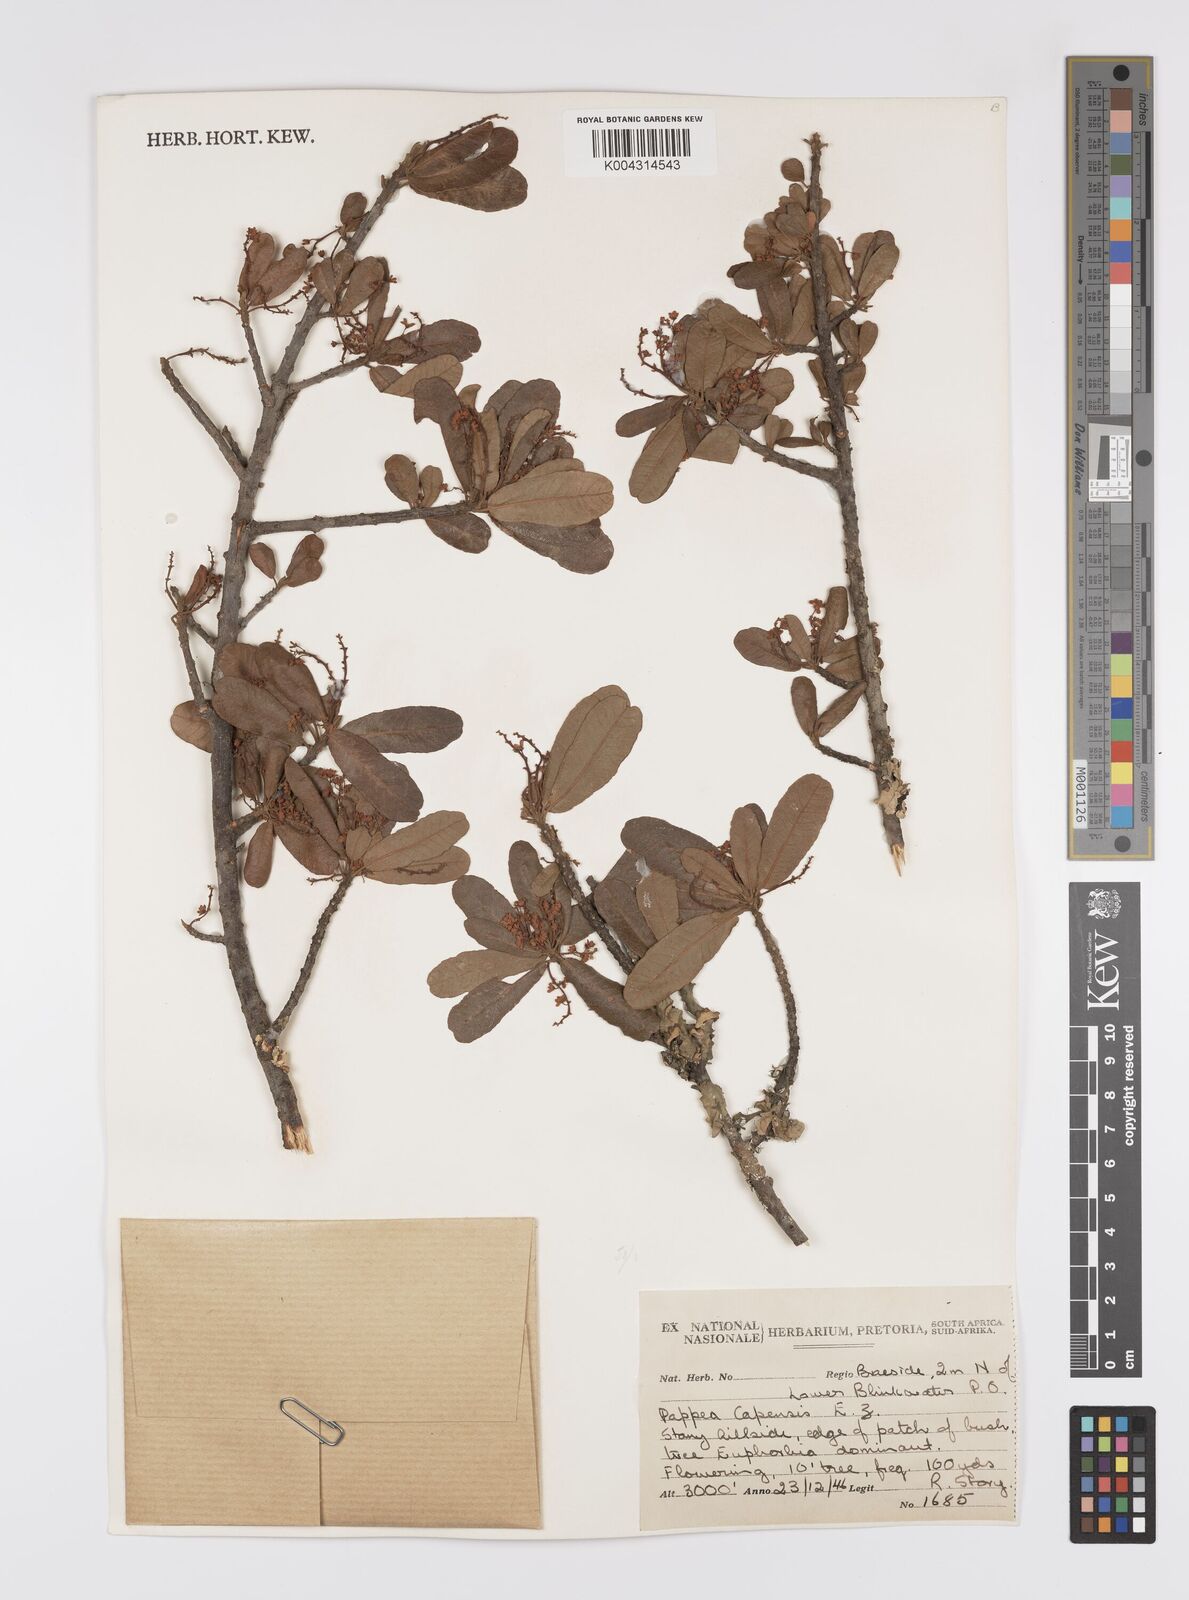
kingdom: Plantae
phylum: Tracheophyta
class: Magnoliopsida
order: Sapindales
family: Sapindaceae
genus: Pappea
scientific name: Pappea capensis
